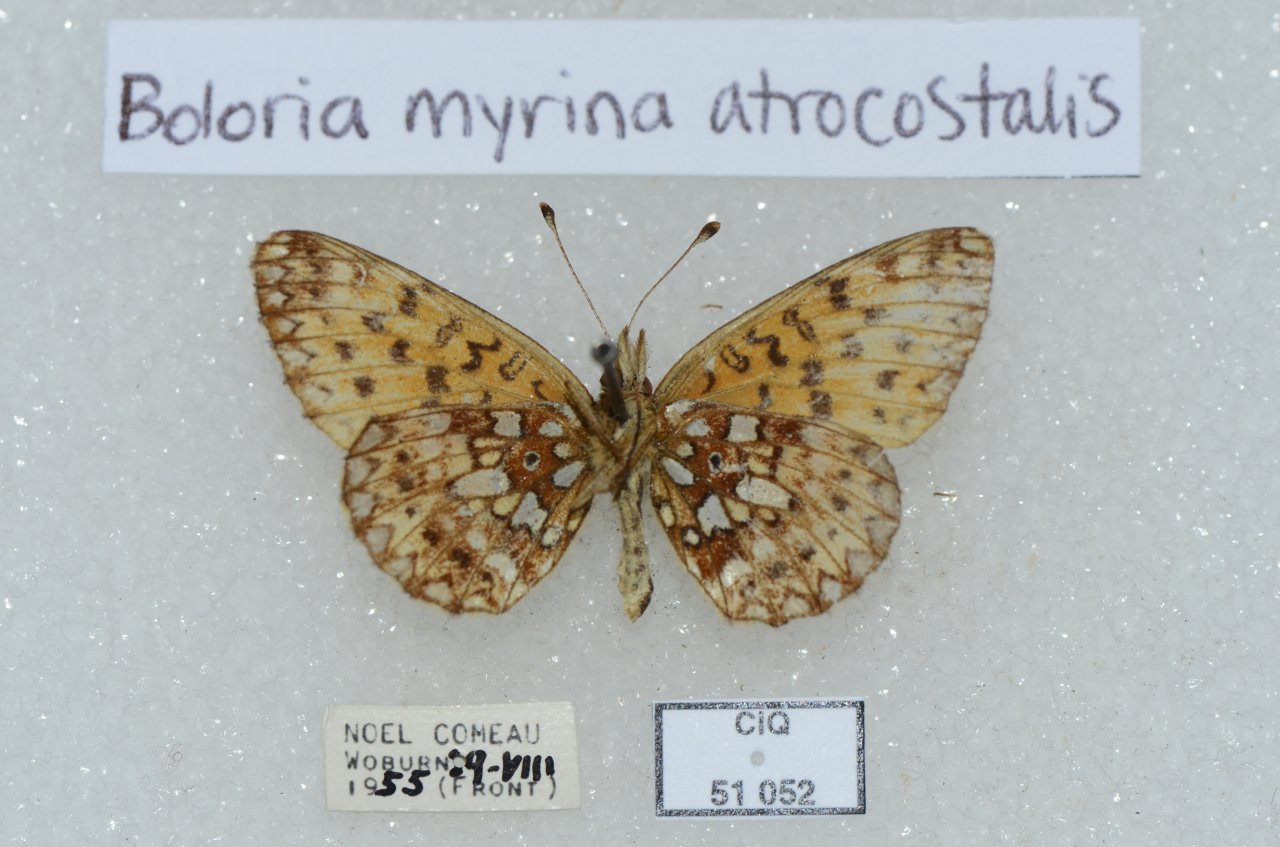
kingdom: Animalia
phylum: Arthropoda
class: Insecta
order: Lepidoptera
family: Nymphalidae
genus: Boloria
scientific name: Boloria selene
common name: Silver-bordered Fritillary
